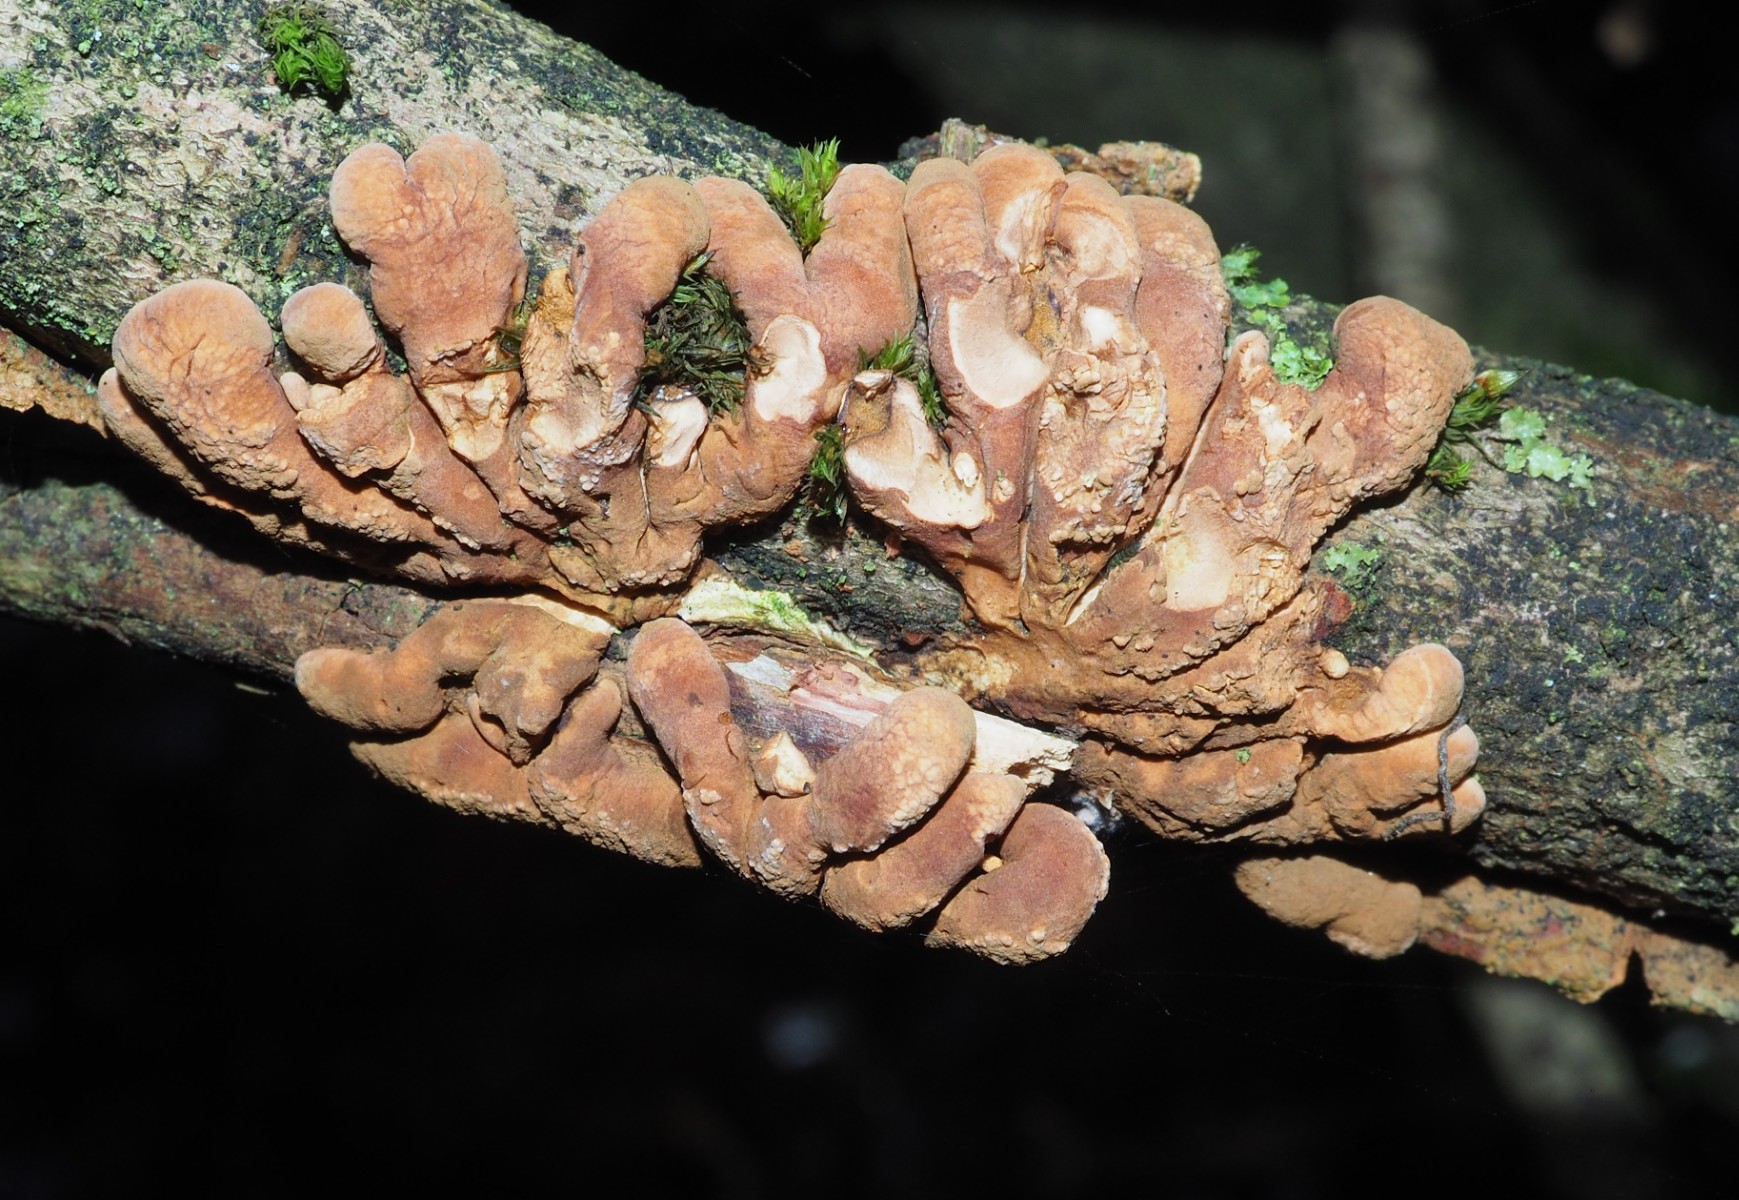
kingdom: Fungi
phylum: Ascomycota
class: Sordariomycetes
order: Hypocreales
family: Hypocreaceae
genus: Hypocreopsis
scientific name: Hypocreopsis lichenoides
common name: pilfinger
